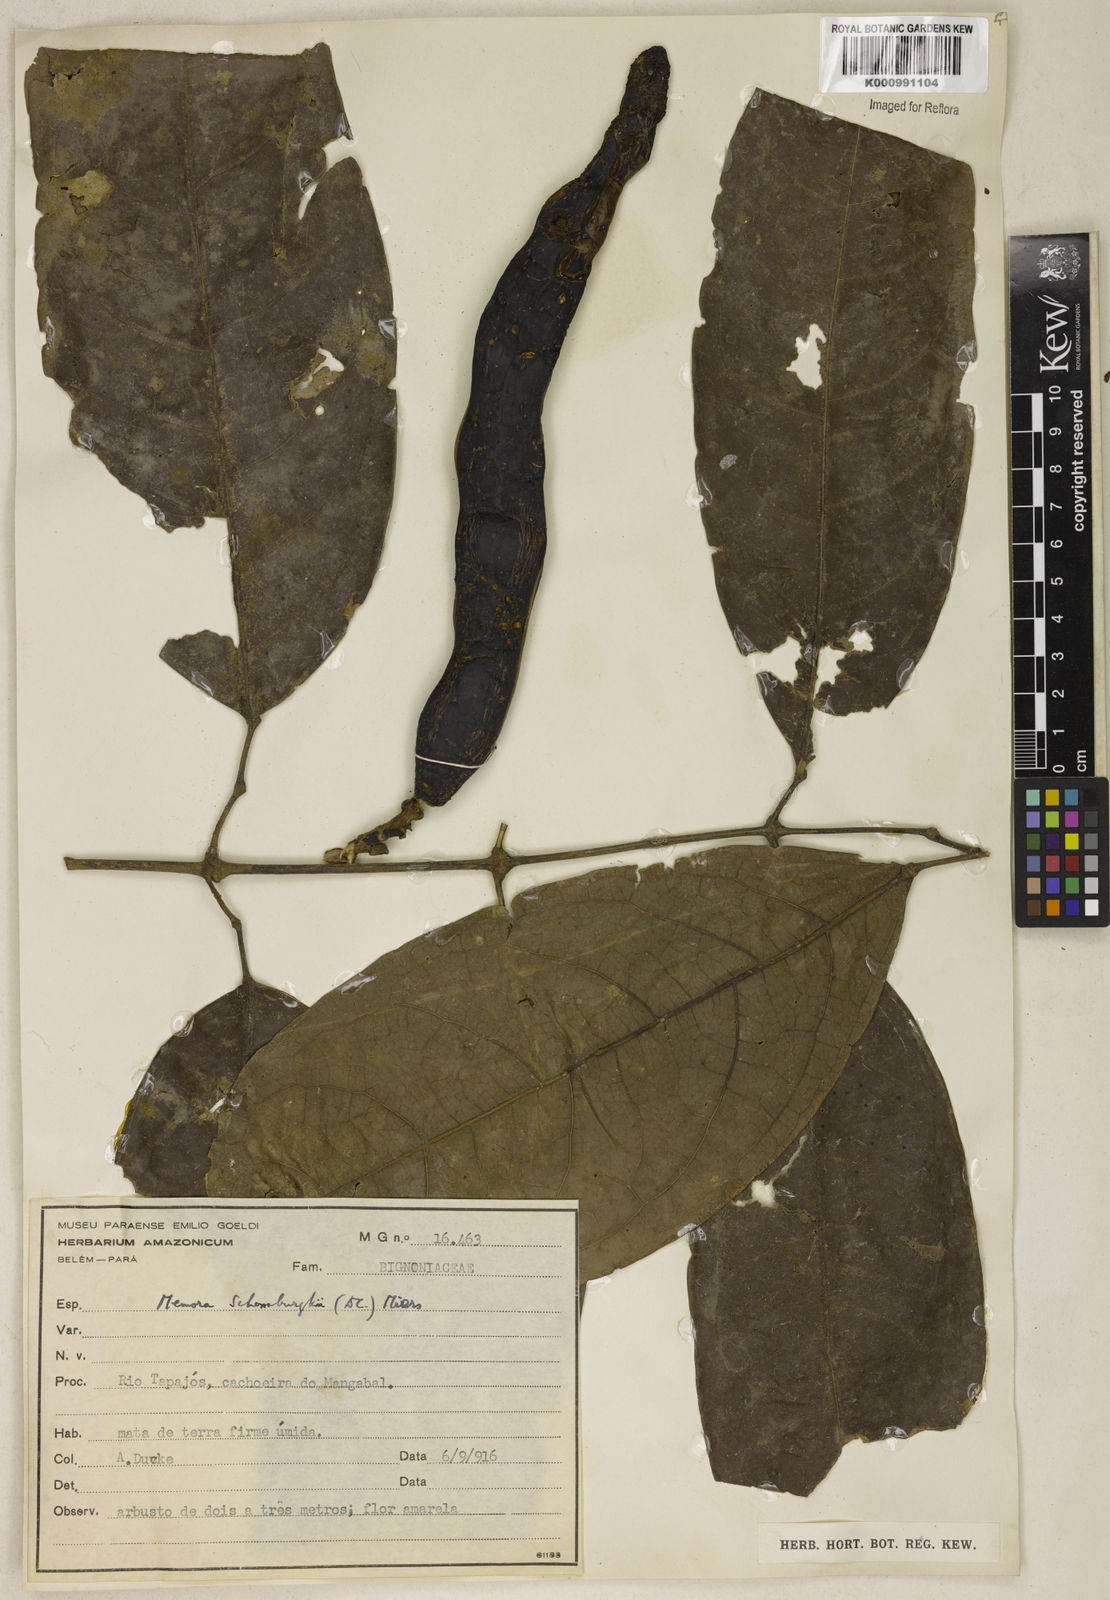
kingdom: Plantae
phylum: Tracheophyta
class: Magnoliopsida
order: Lamiales
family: Bignoniaceae
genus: Adenocalymma
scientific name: Adenocalymma schomburgkii
